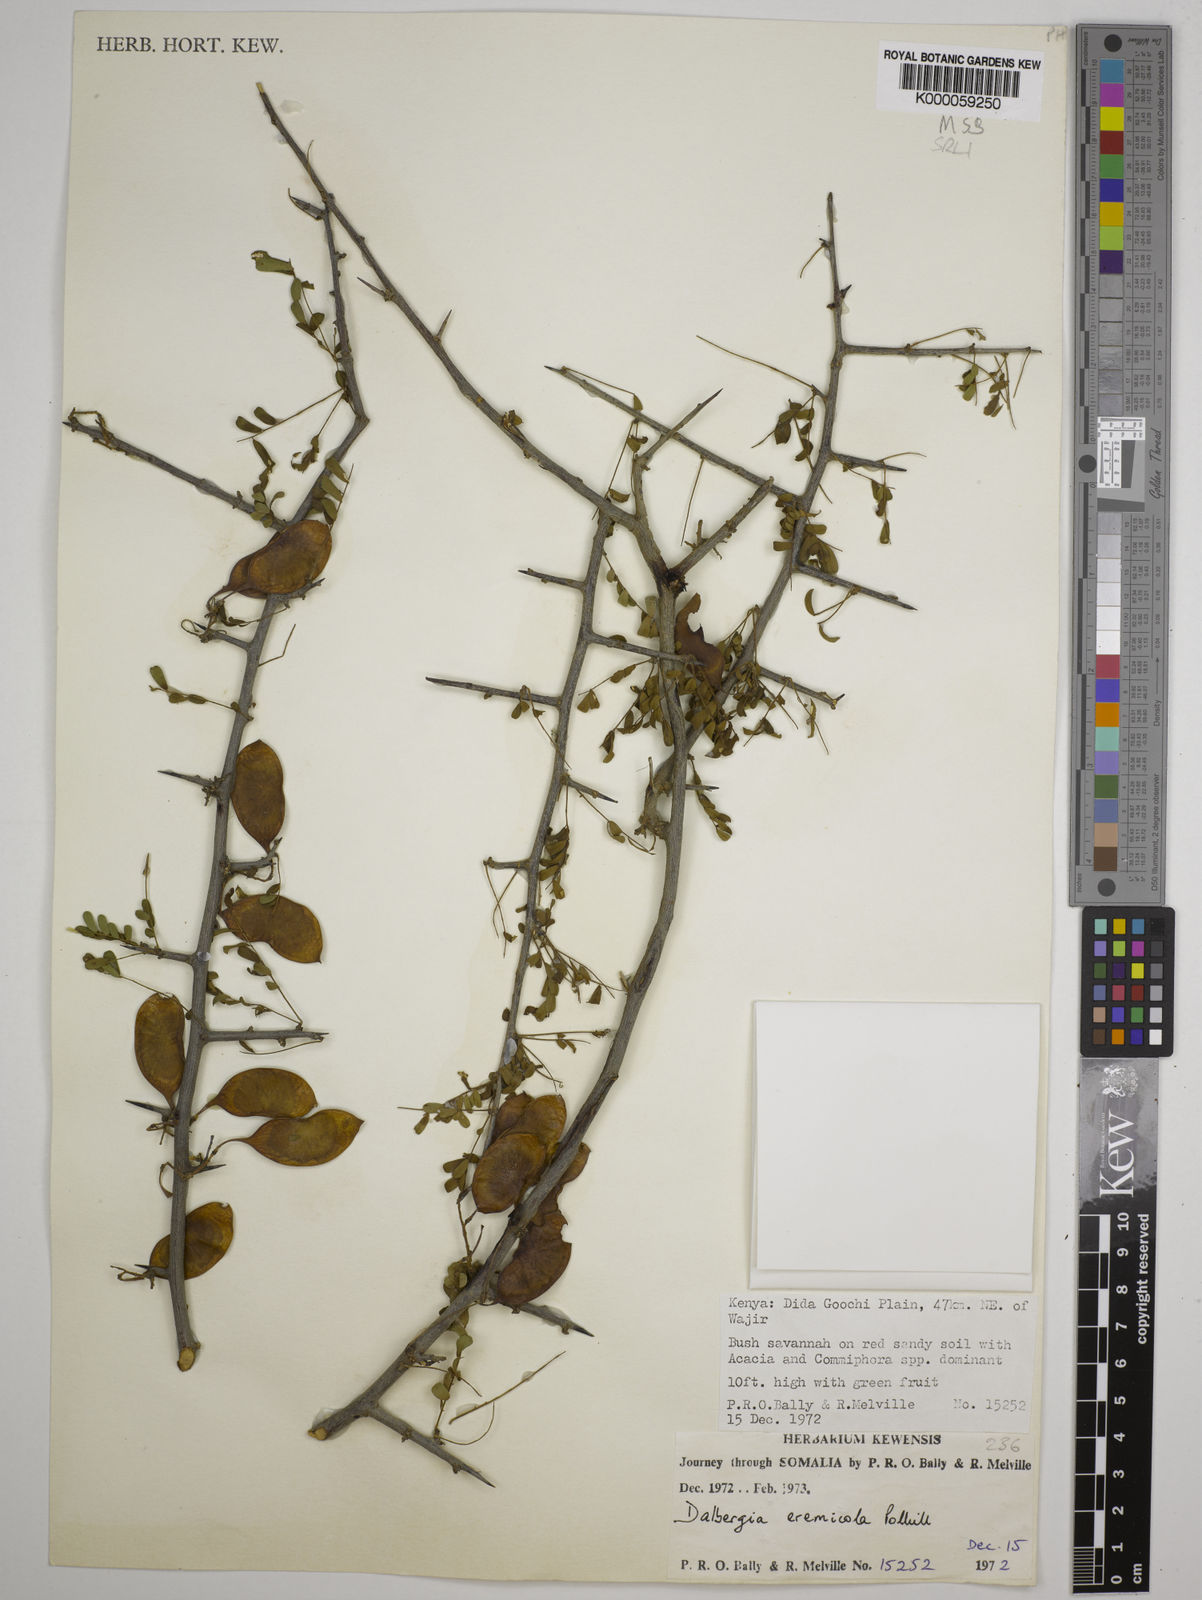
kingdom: Plantae
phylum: Tracheophyta
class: Magnoliopsida
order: Fabales
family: Fabaceae
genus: Dalbergia
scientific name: Dalbergia eremicola
